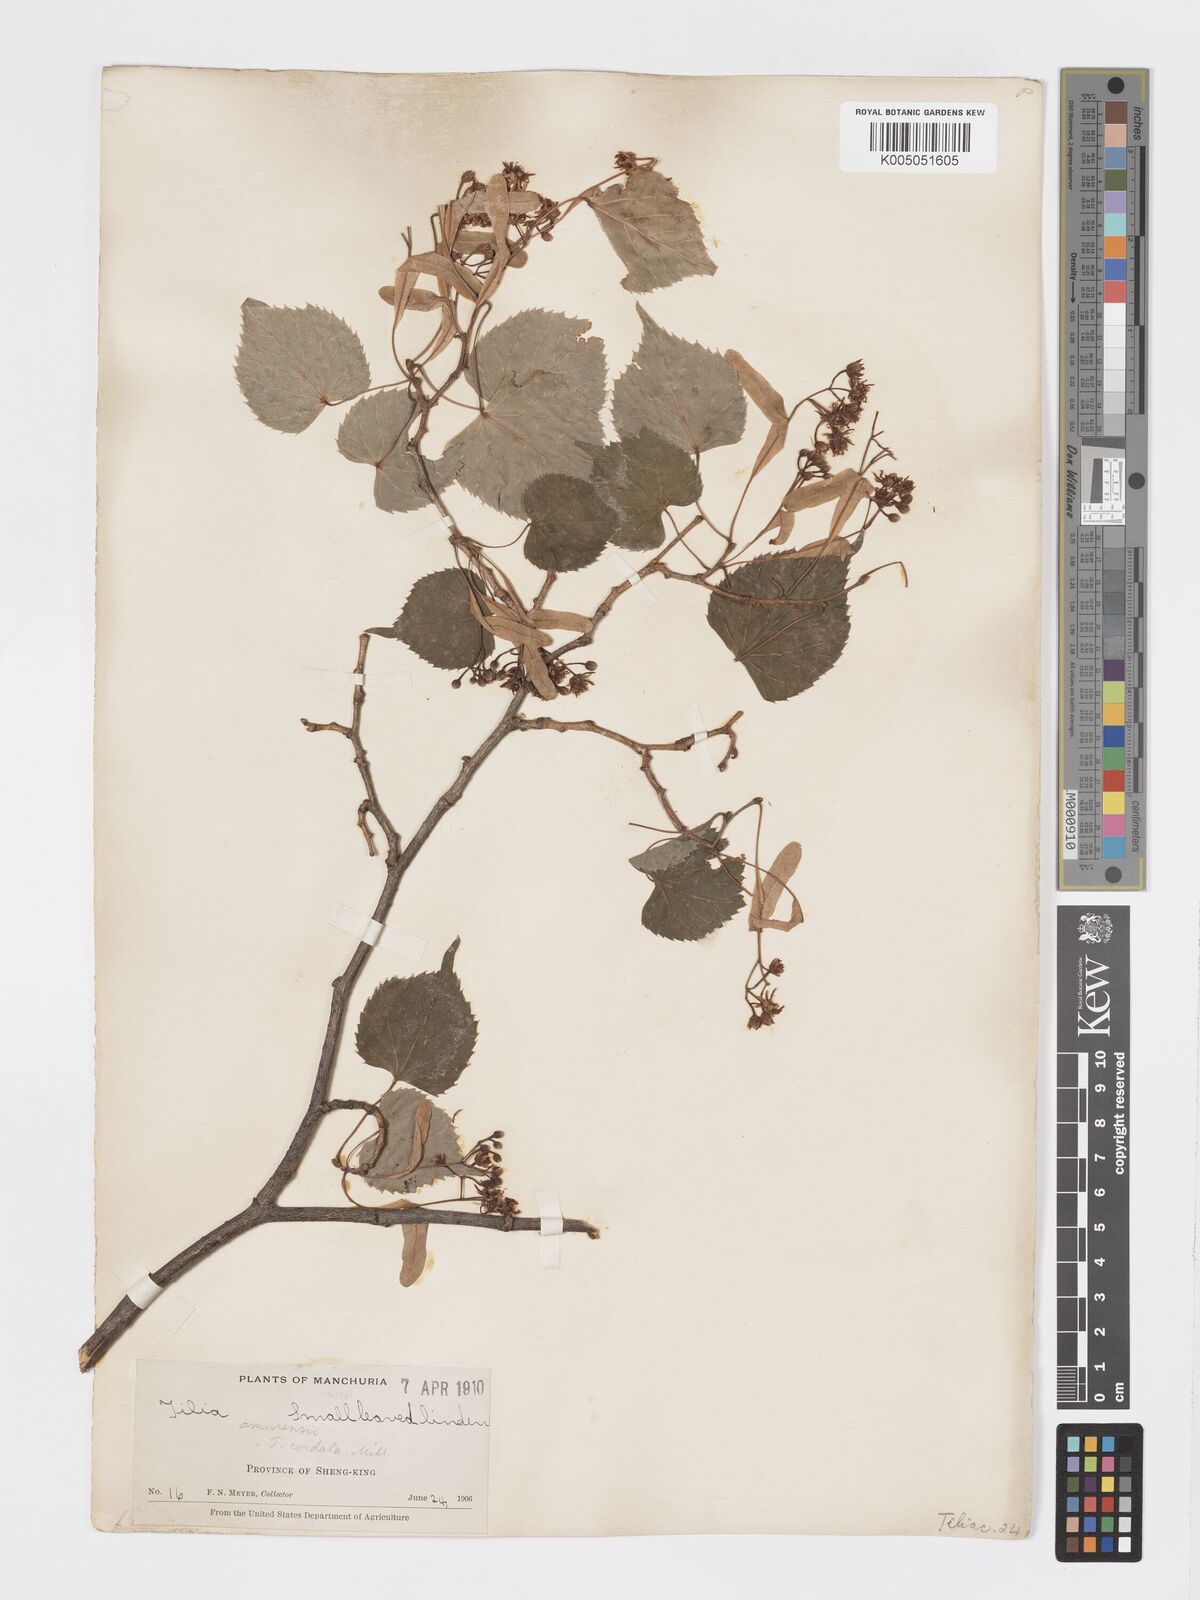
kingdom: Plantae
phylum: Tracheophyta
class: Magnoliopsida
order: Malvales
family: Malvaceae
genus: Tilia
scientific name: Tilia
